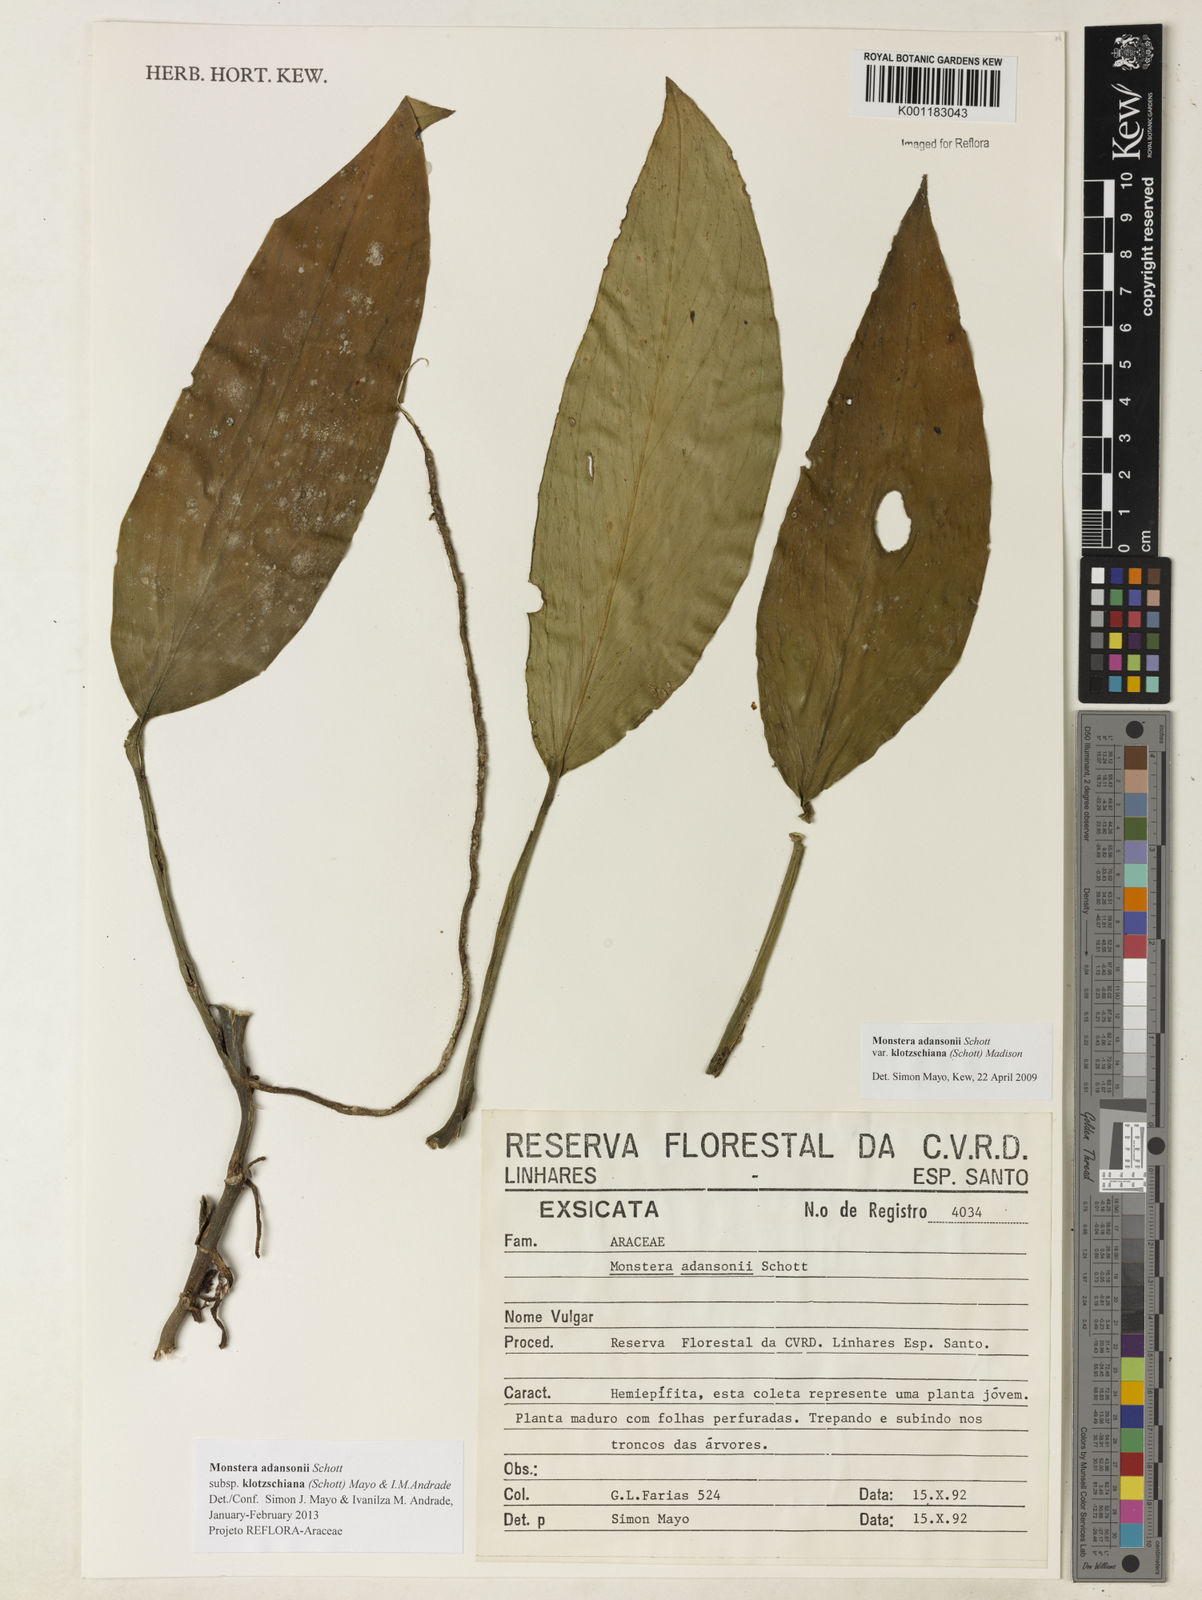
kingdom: Plantae
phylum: Tracheophyta
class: Liliopsida
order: Alismatales
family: Araceae
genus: Monstera
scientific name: Monstera adansonii
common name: Tarovine
